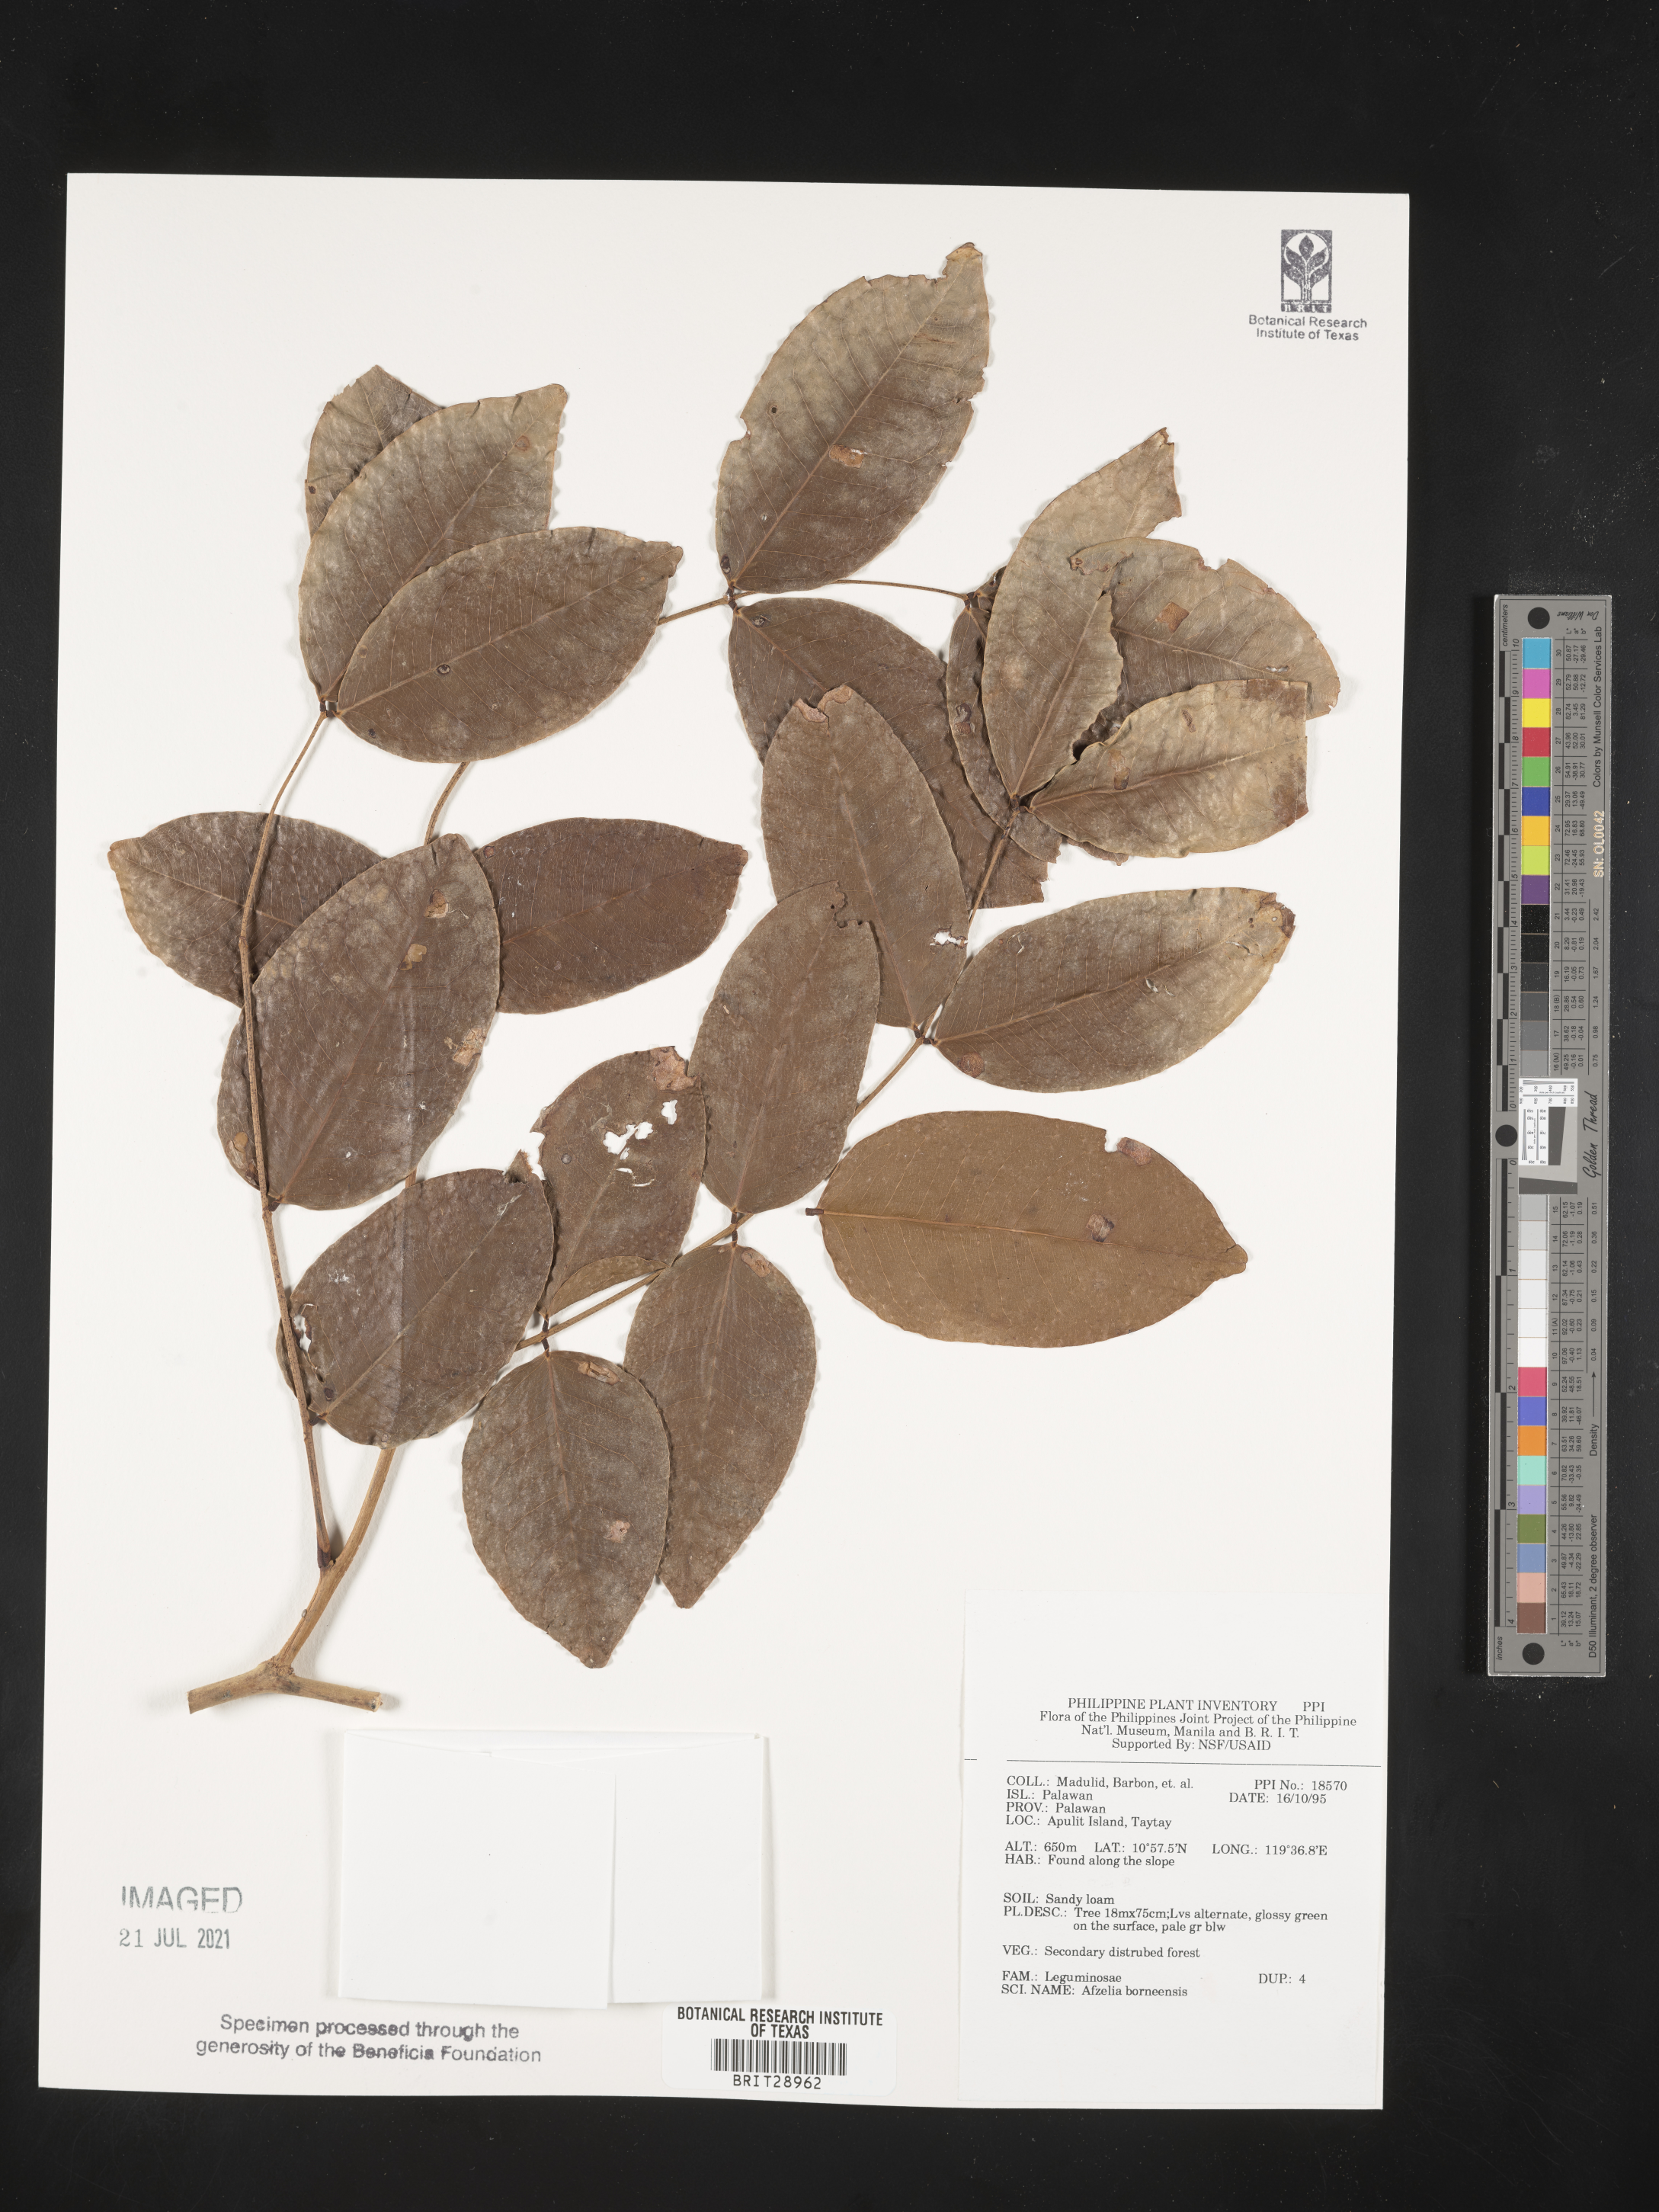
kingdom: Plantae
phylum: Tracheophyta
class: Magnoliopsida
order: Fabales
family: Fabaceae
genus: Afzelia
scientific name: Afzelia rhomboidea
